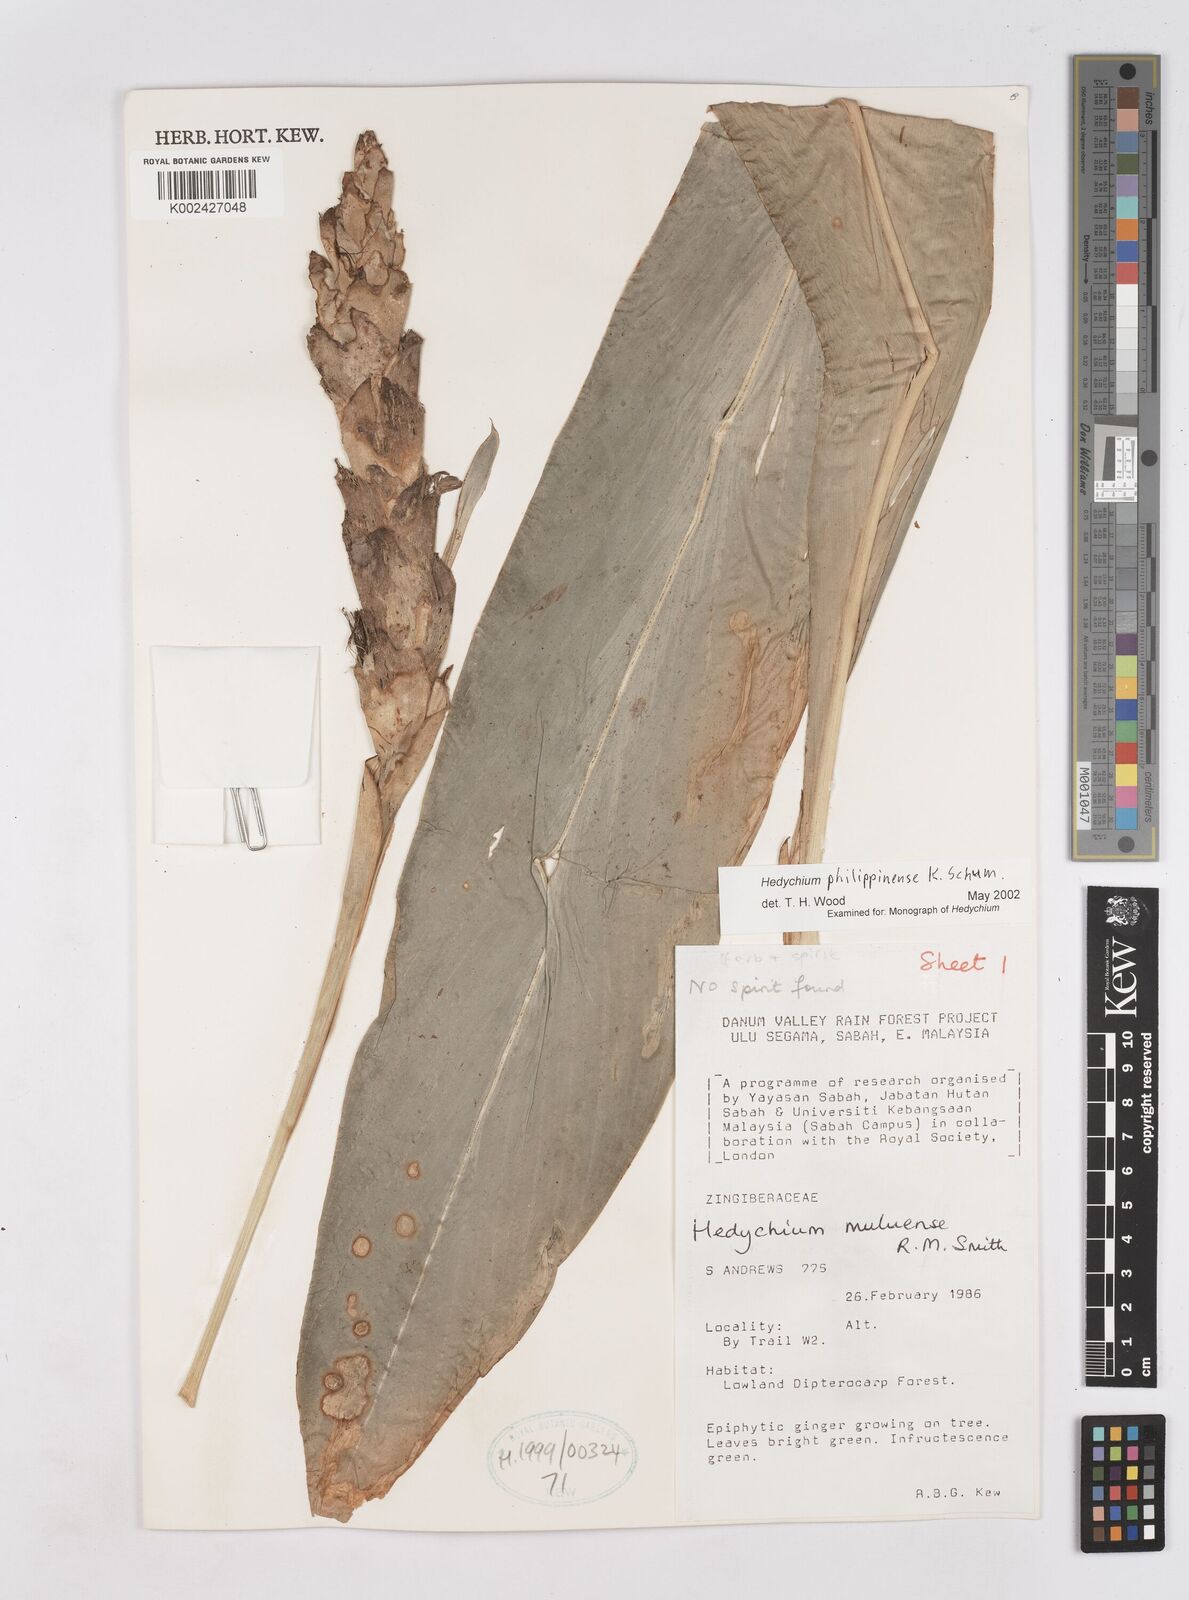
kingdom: Plantae
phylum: Tracheophyta
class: Liliopsida
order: Zingiberales
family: Zingiberaceae
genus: Hedychium
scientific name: Hedychium philippinense
